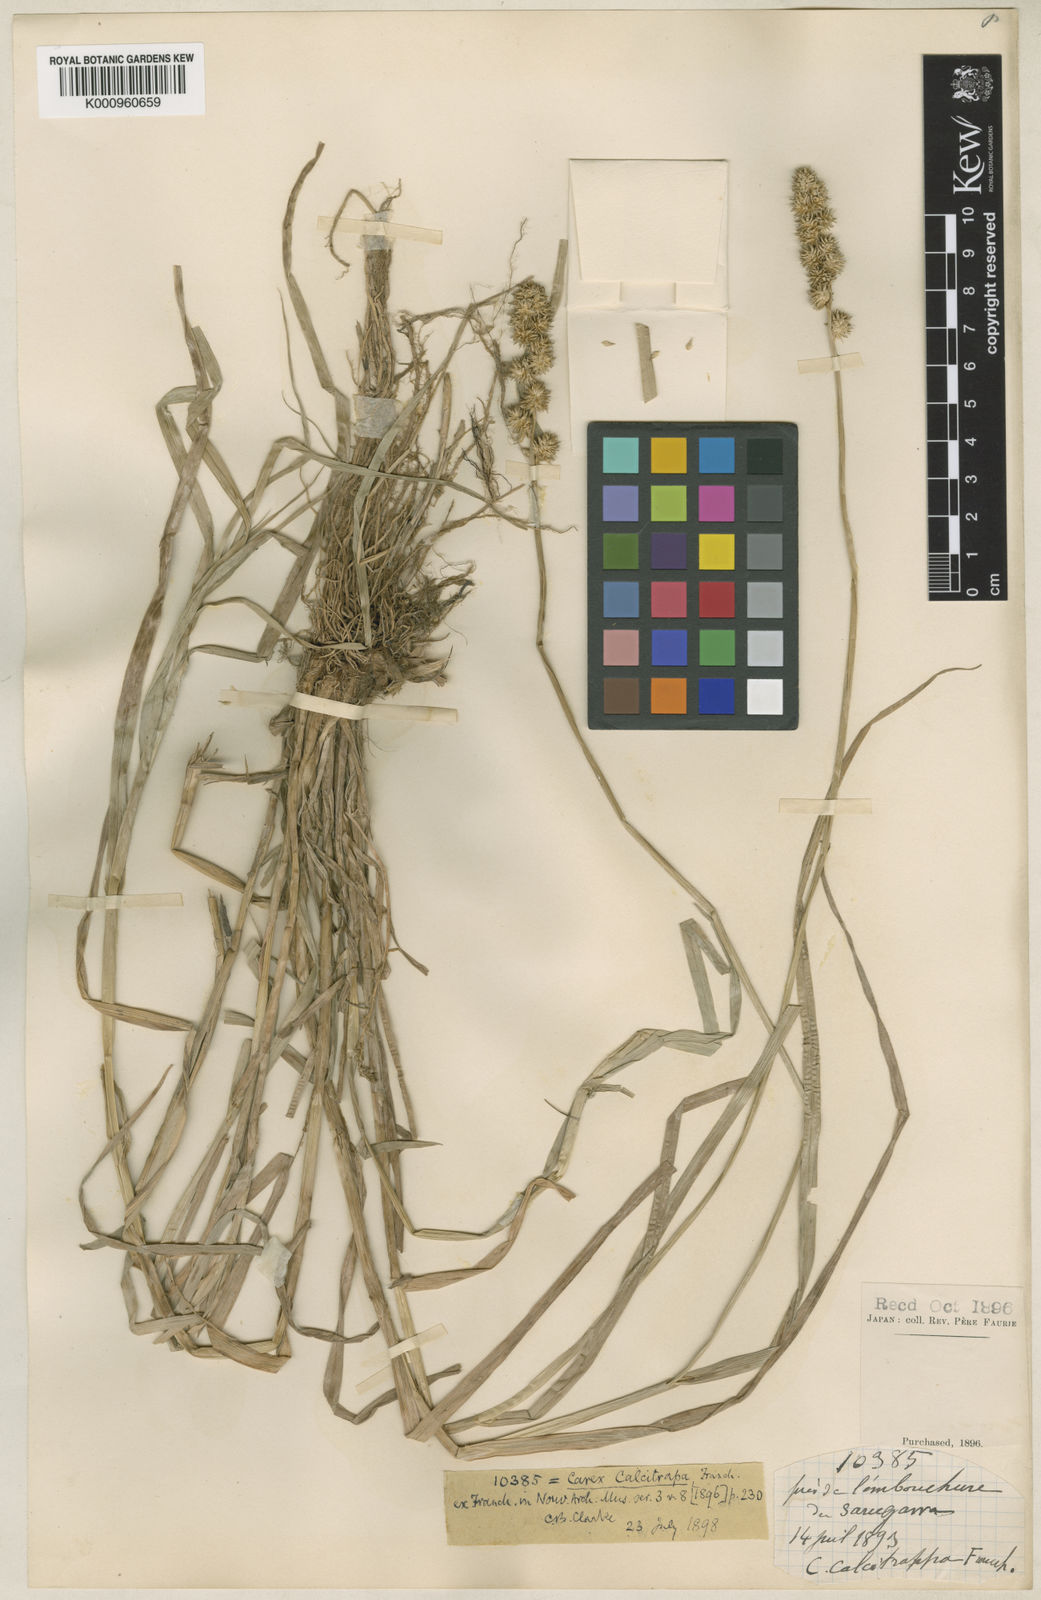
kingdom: Plantae
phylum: Tracheophyta
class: Liliopsida
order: Poales
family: Cyperaceae
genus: Carex
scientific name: Carex maackii
